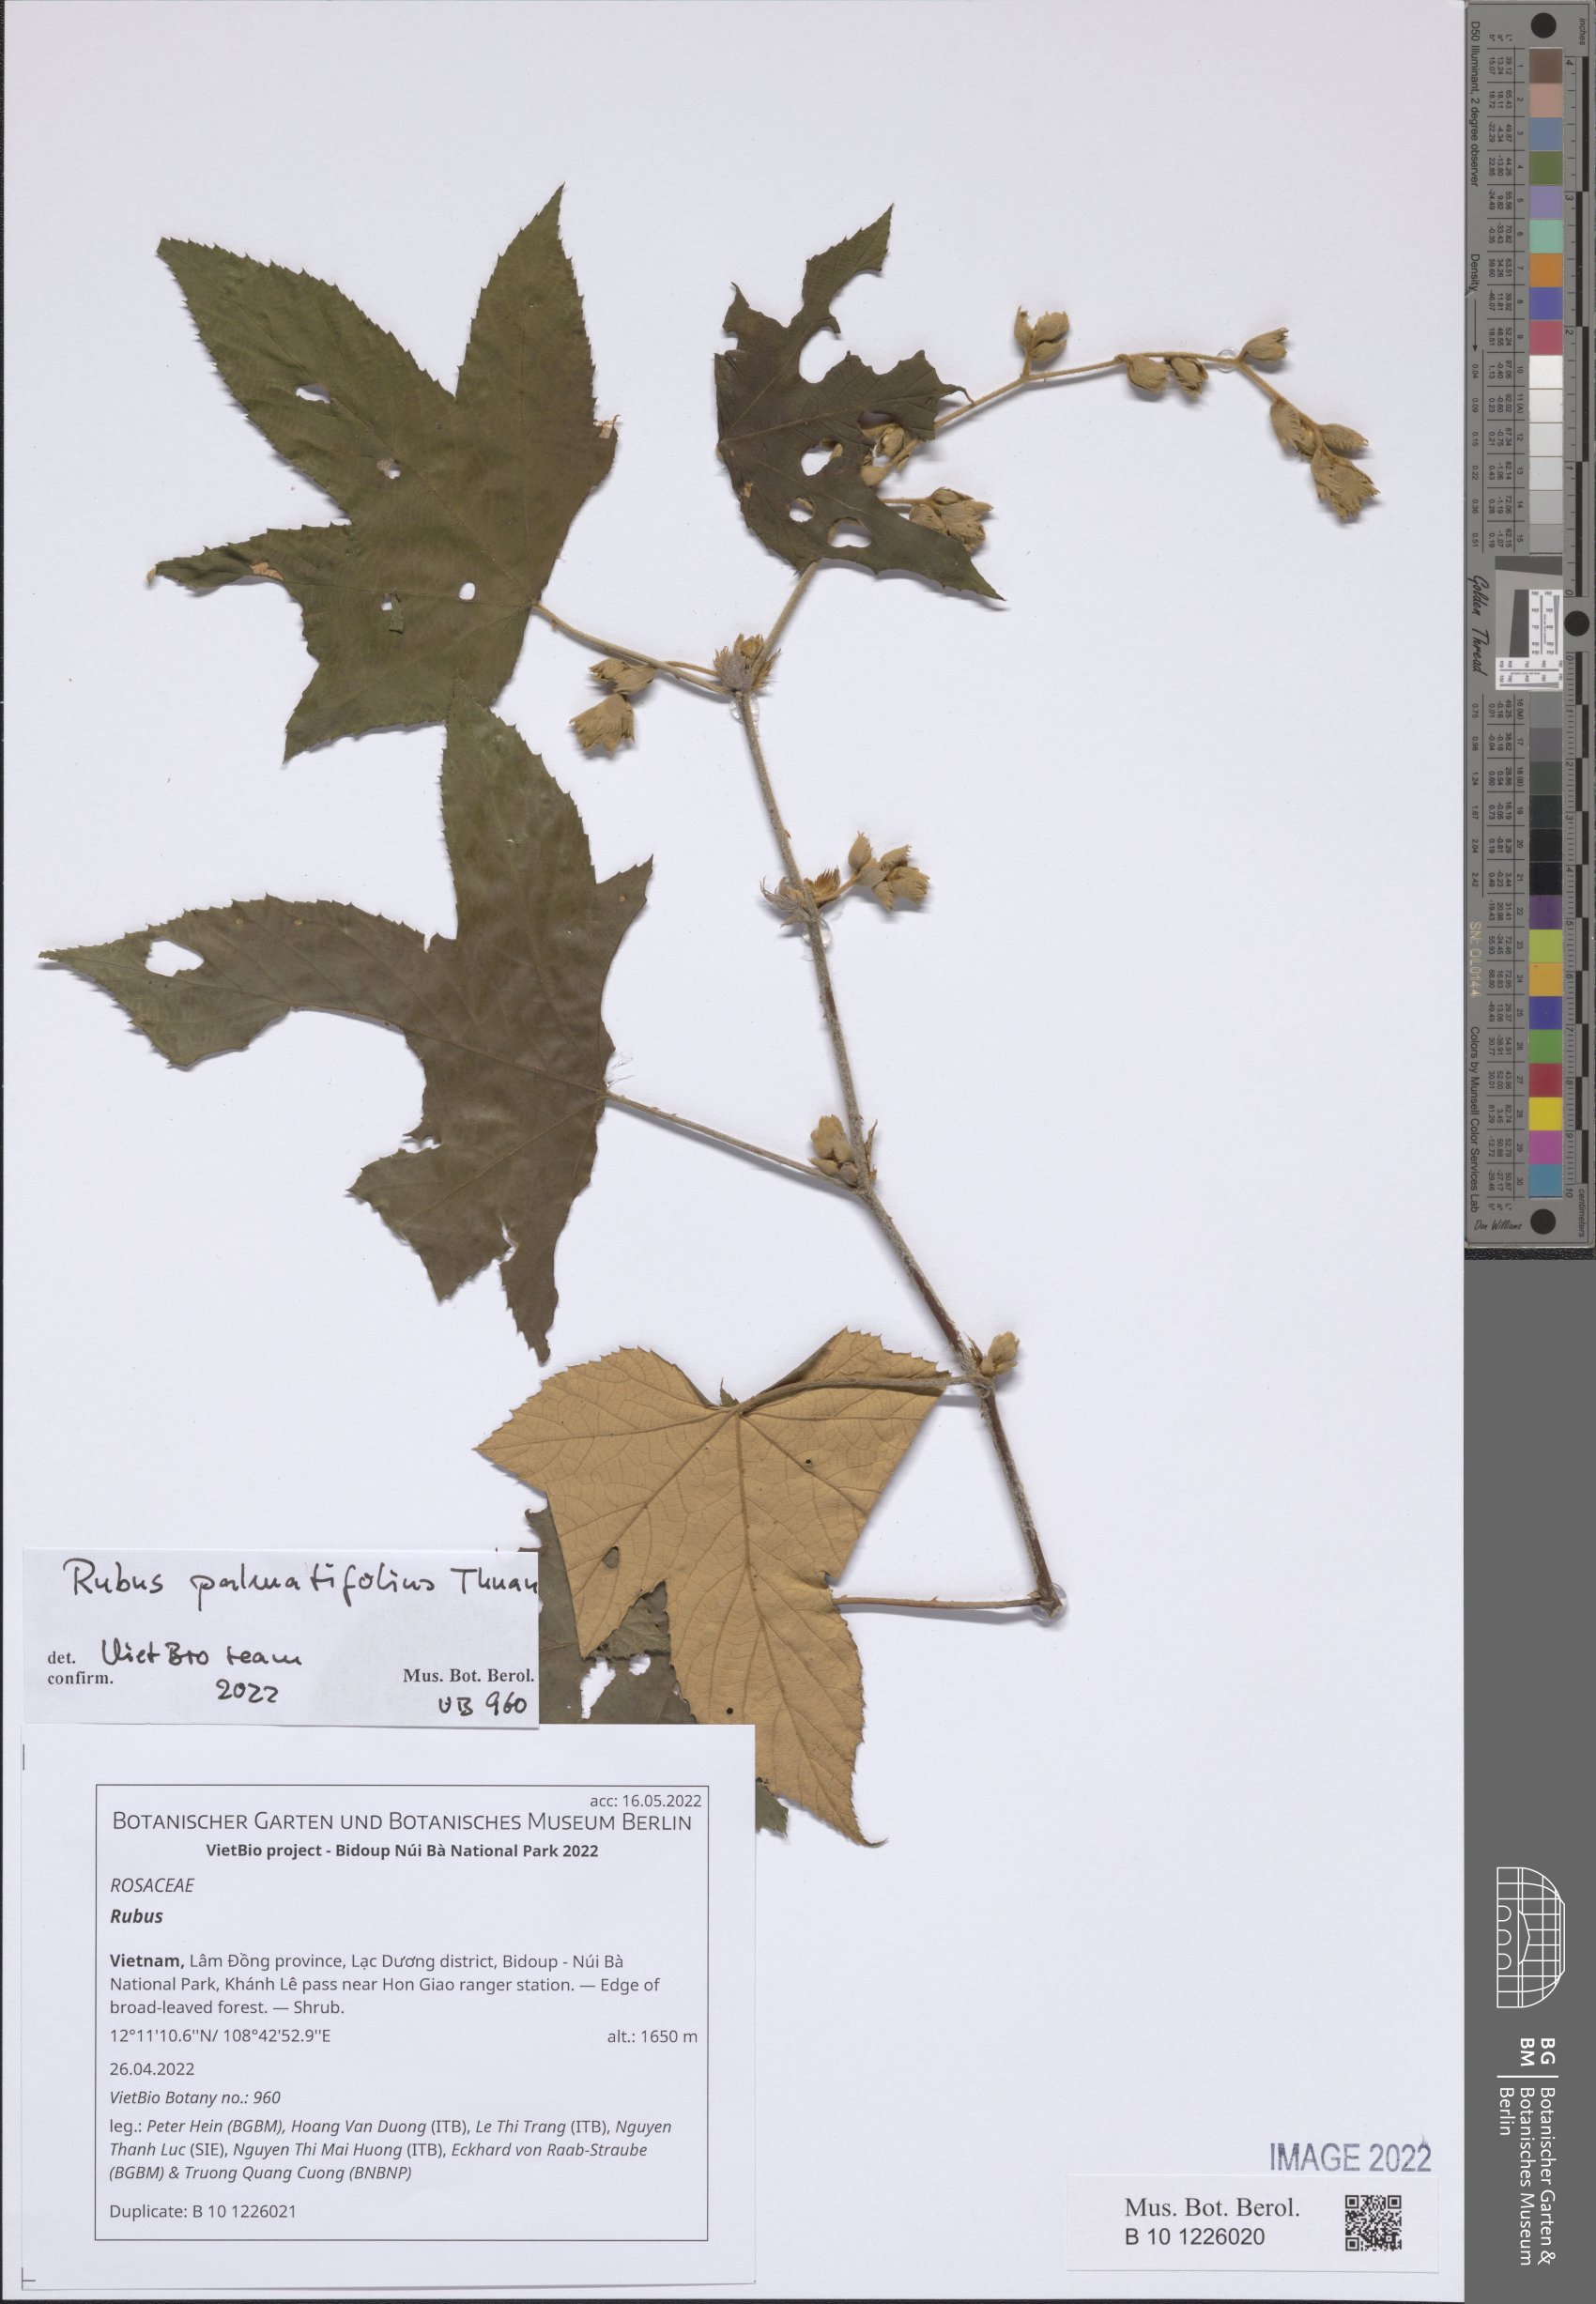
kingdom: Plantae
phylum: Tracheophyta
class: Magnoliopsida
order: Rosales
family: Rosaceae
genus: Rubus
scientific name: Rubus
